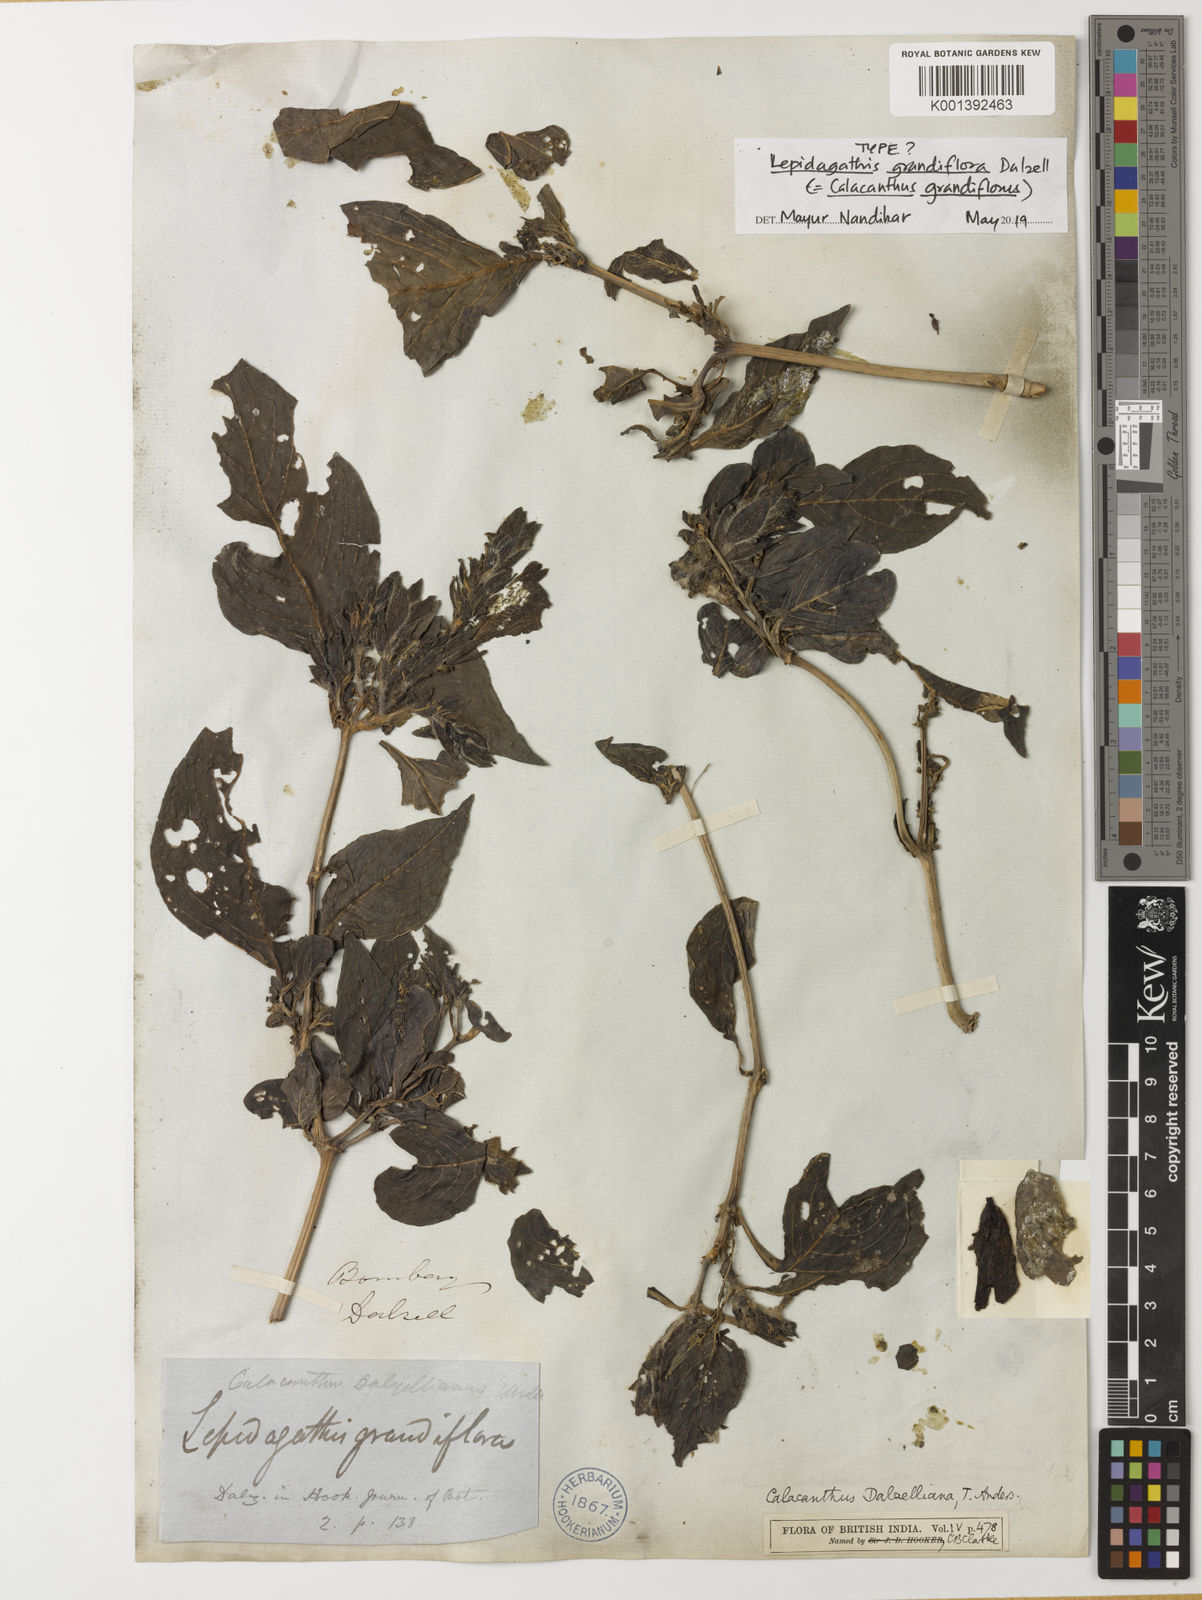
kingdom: Plantae
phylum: Tracheophyta
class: Magnoliopsida
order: Lamiales
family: Acanthaceae
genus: Calacanthus
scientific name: Calacanthus
